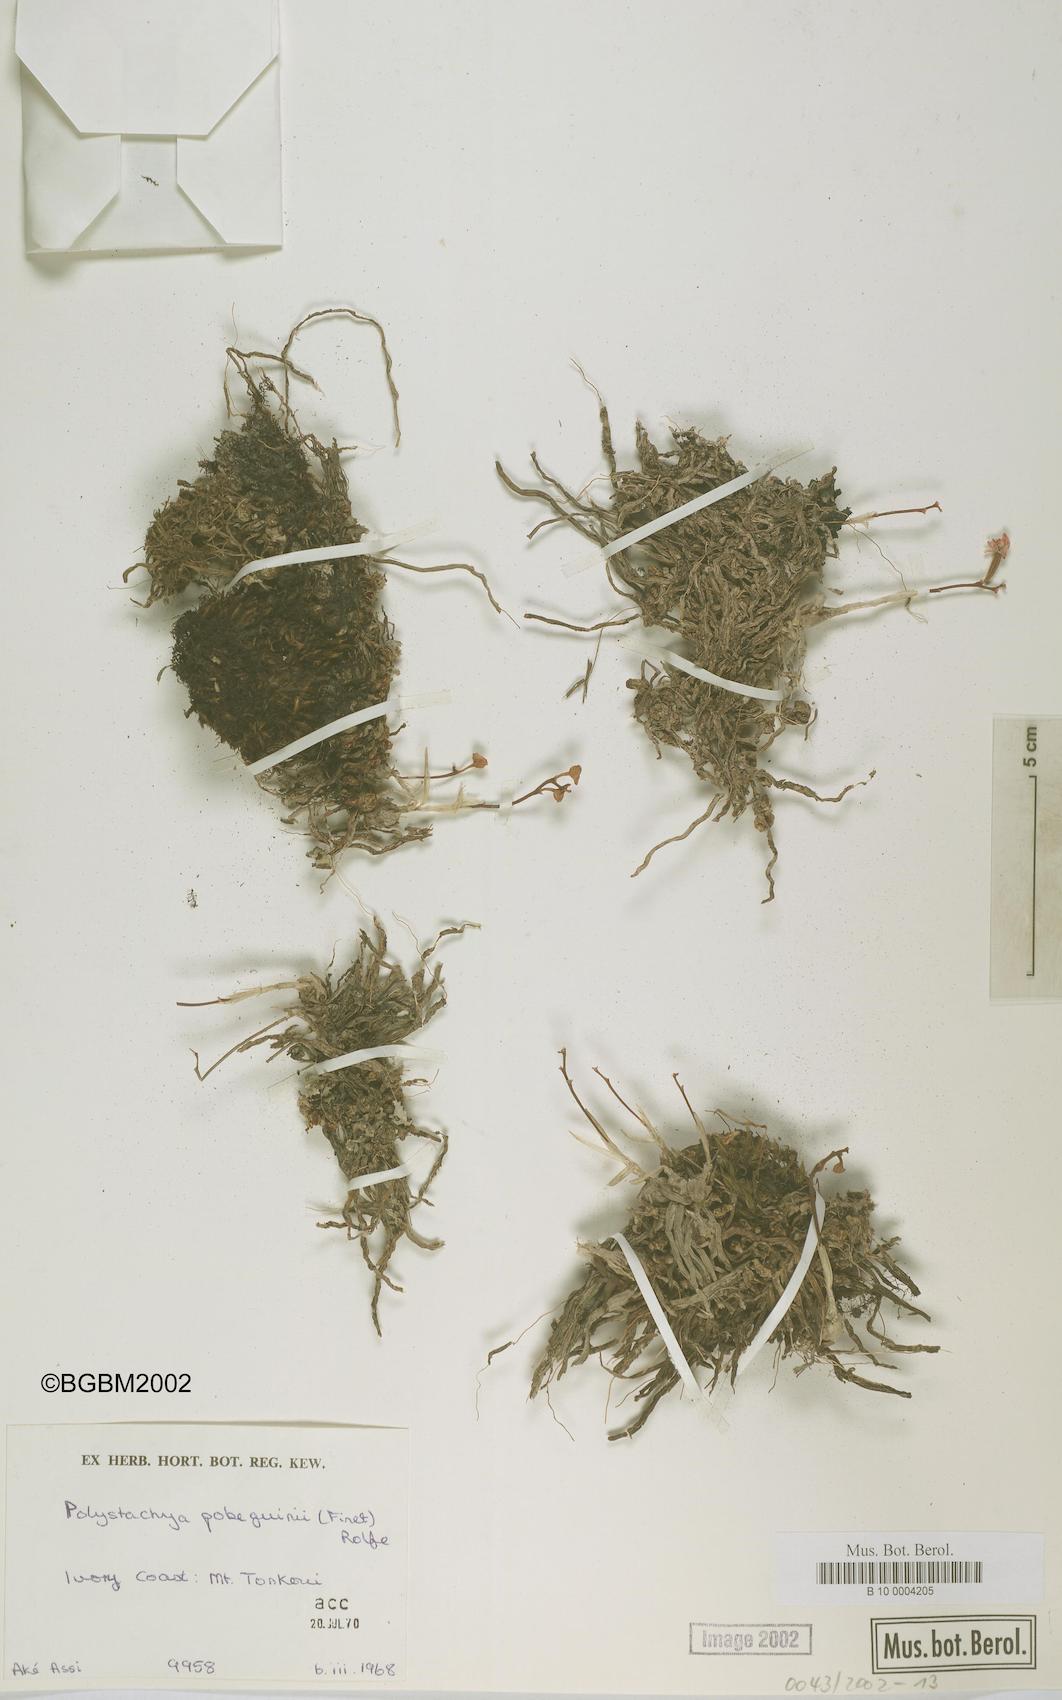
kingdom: Plantae
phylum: Tracheophyta
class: Liliopsida
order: Asparagales
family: Orchidaceae
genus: Polystachya
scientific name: Polystachya pobeguinii
